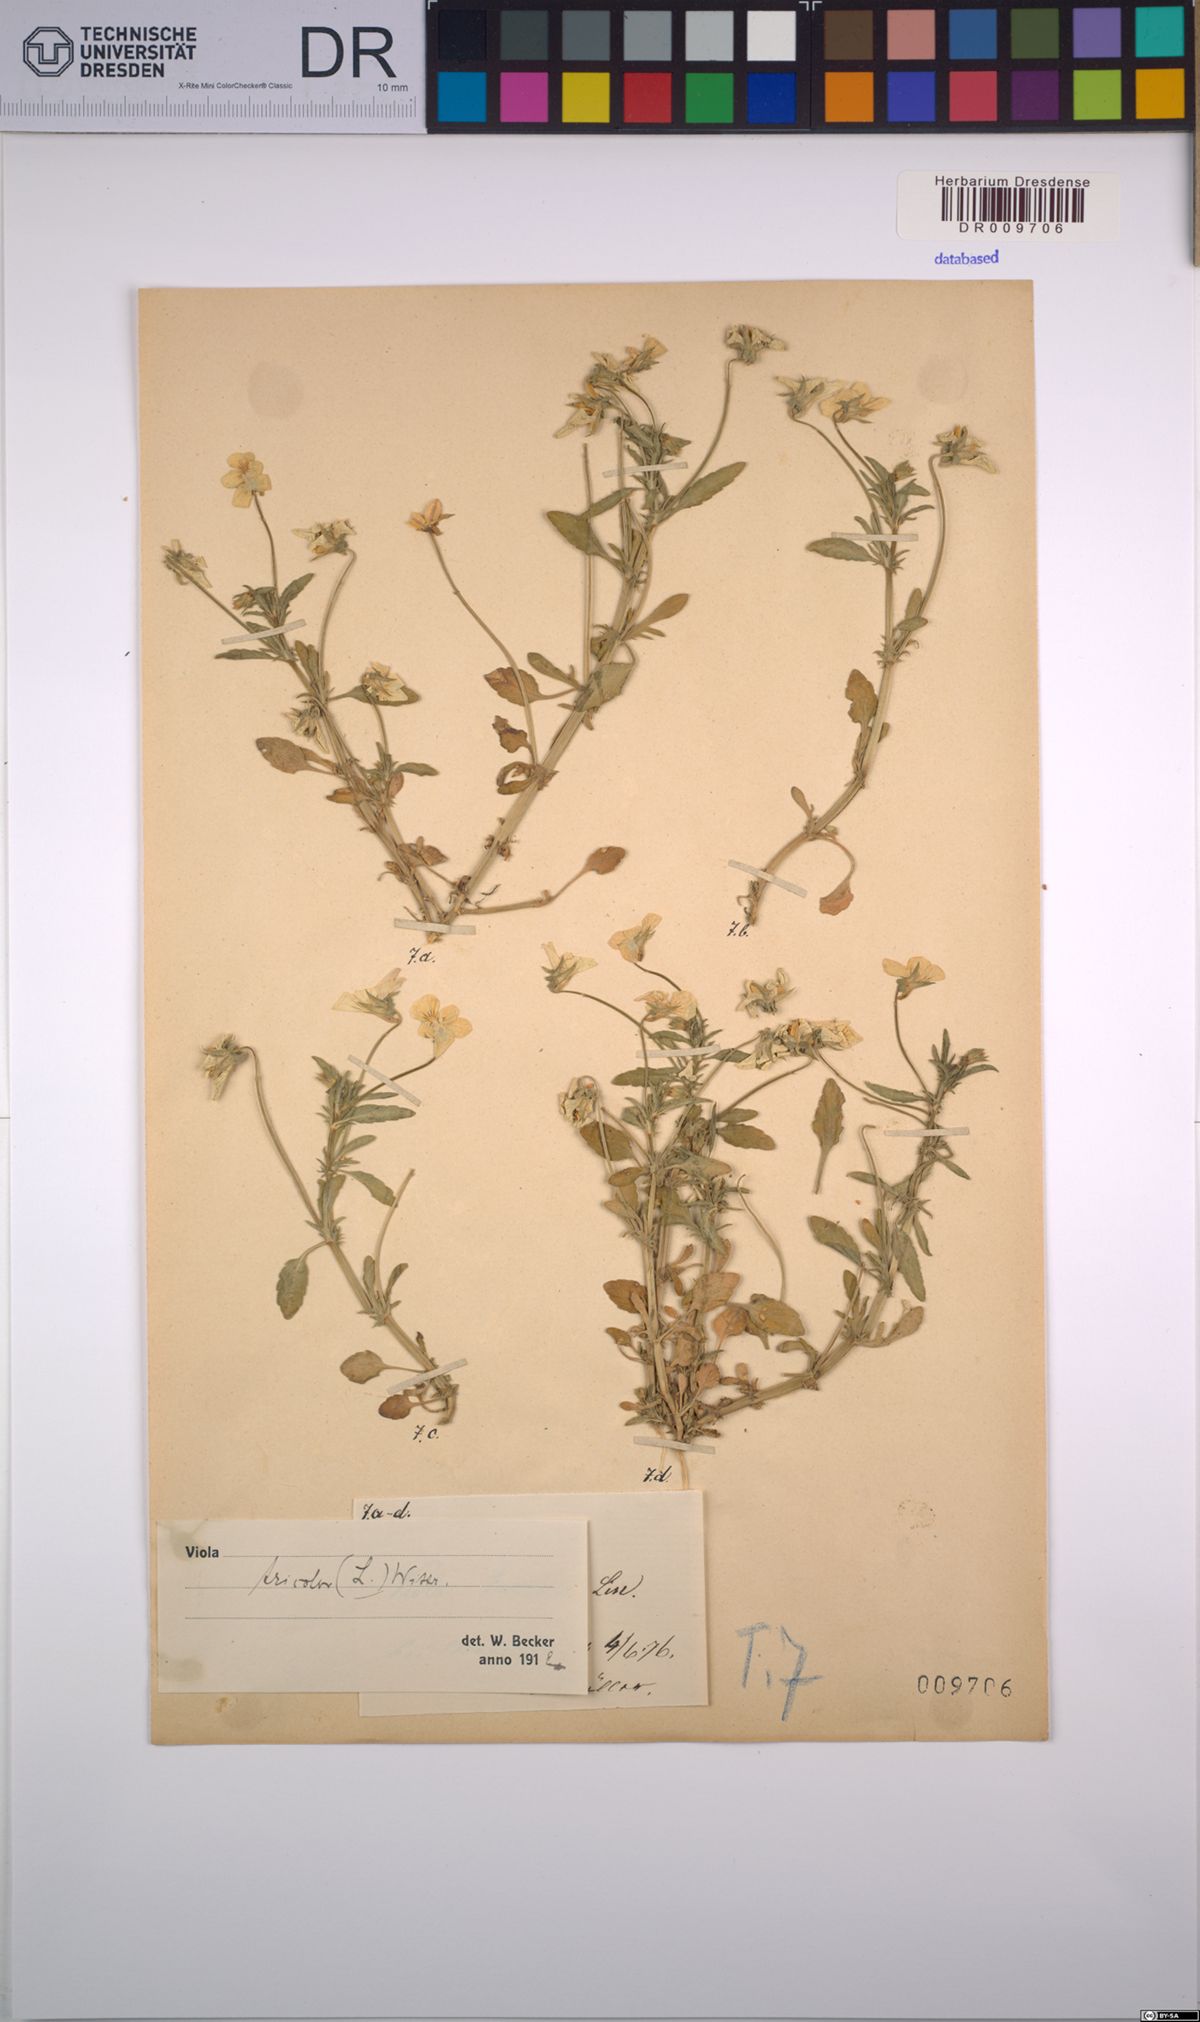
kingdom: Plantae
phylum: Tracheophyta
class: Magnoliopsida
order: Malpighiales
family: Violaceae
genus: Viola
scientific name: Viola tricolor
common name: Pansy
